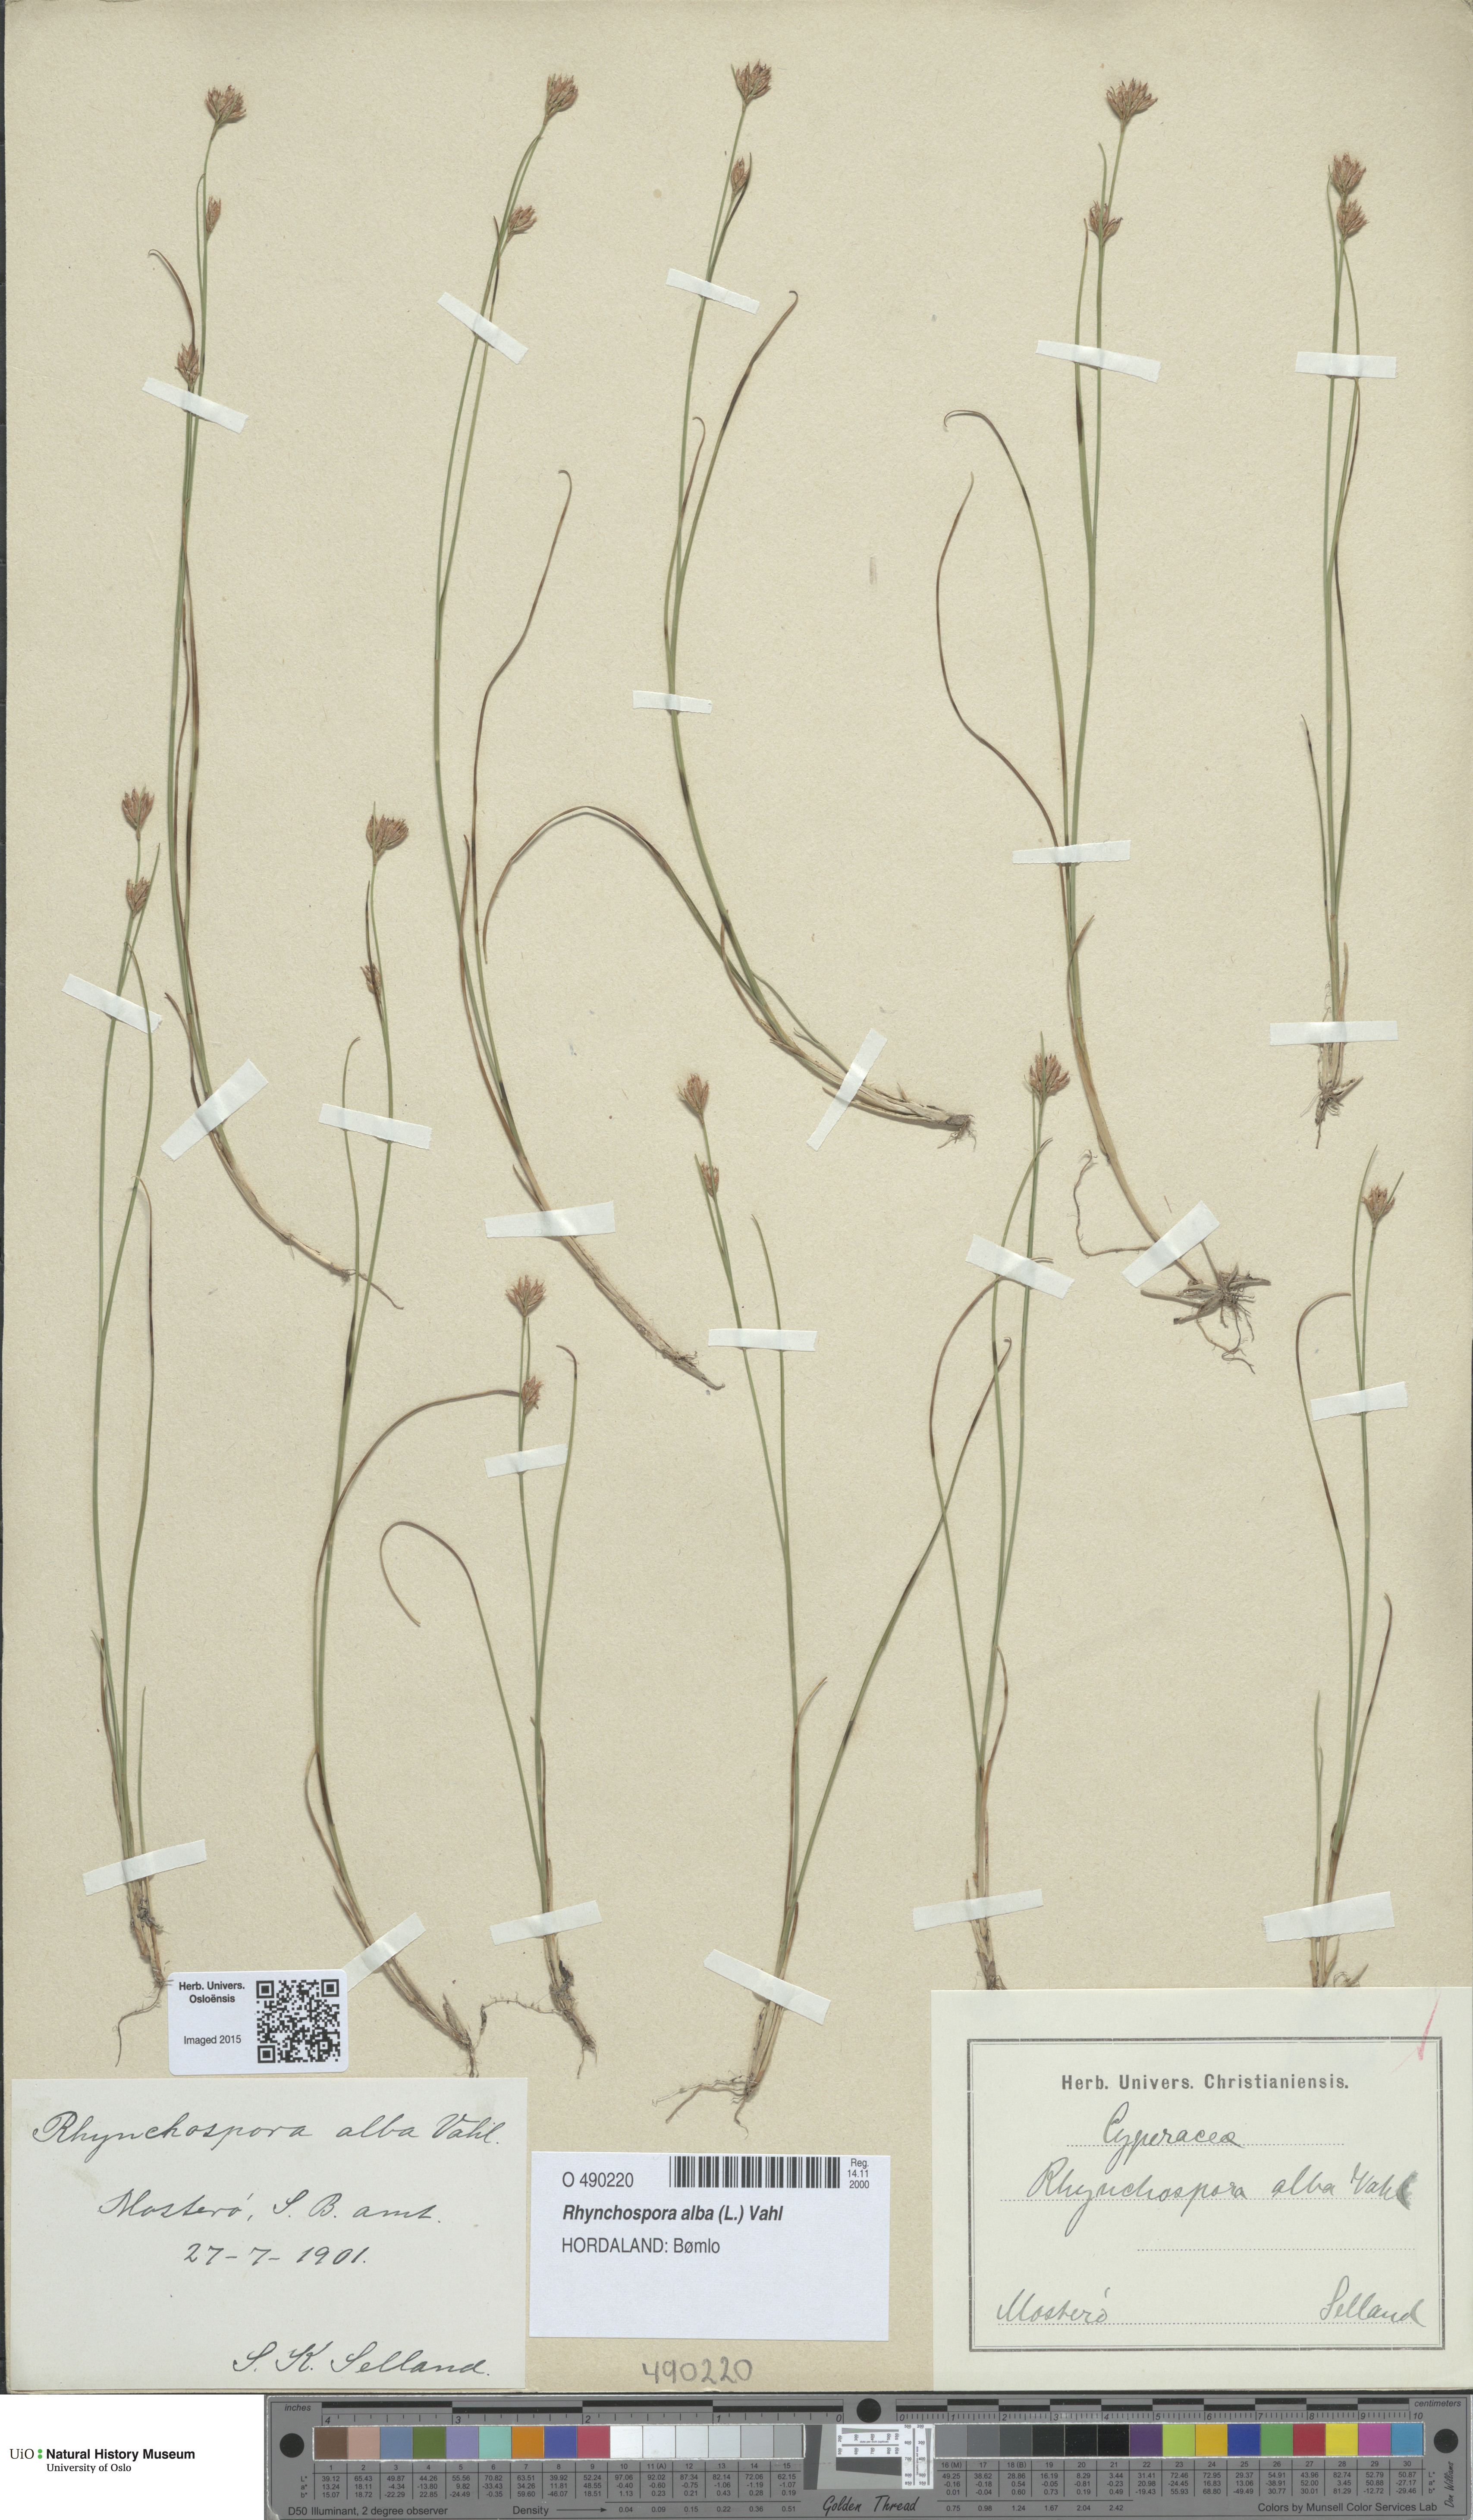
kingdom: Plantae
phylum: Tracheophyta
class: Liliopsida
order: Poales
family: Cyperaceae
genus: Rhynchospora
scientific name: Rhynchospora alba
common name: White beak-sedge
